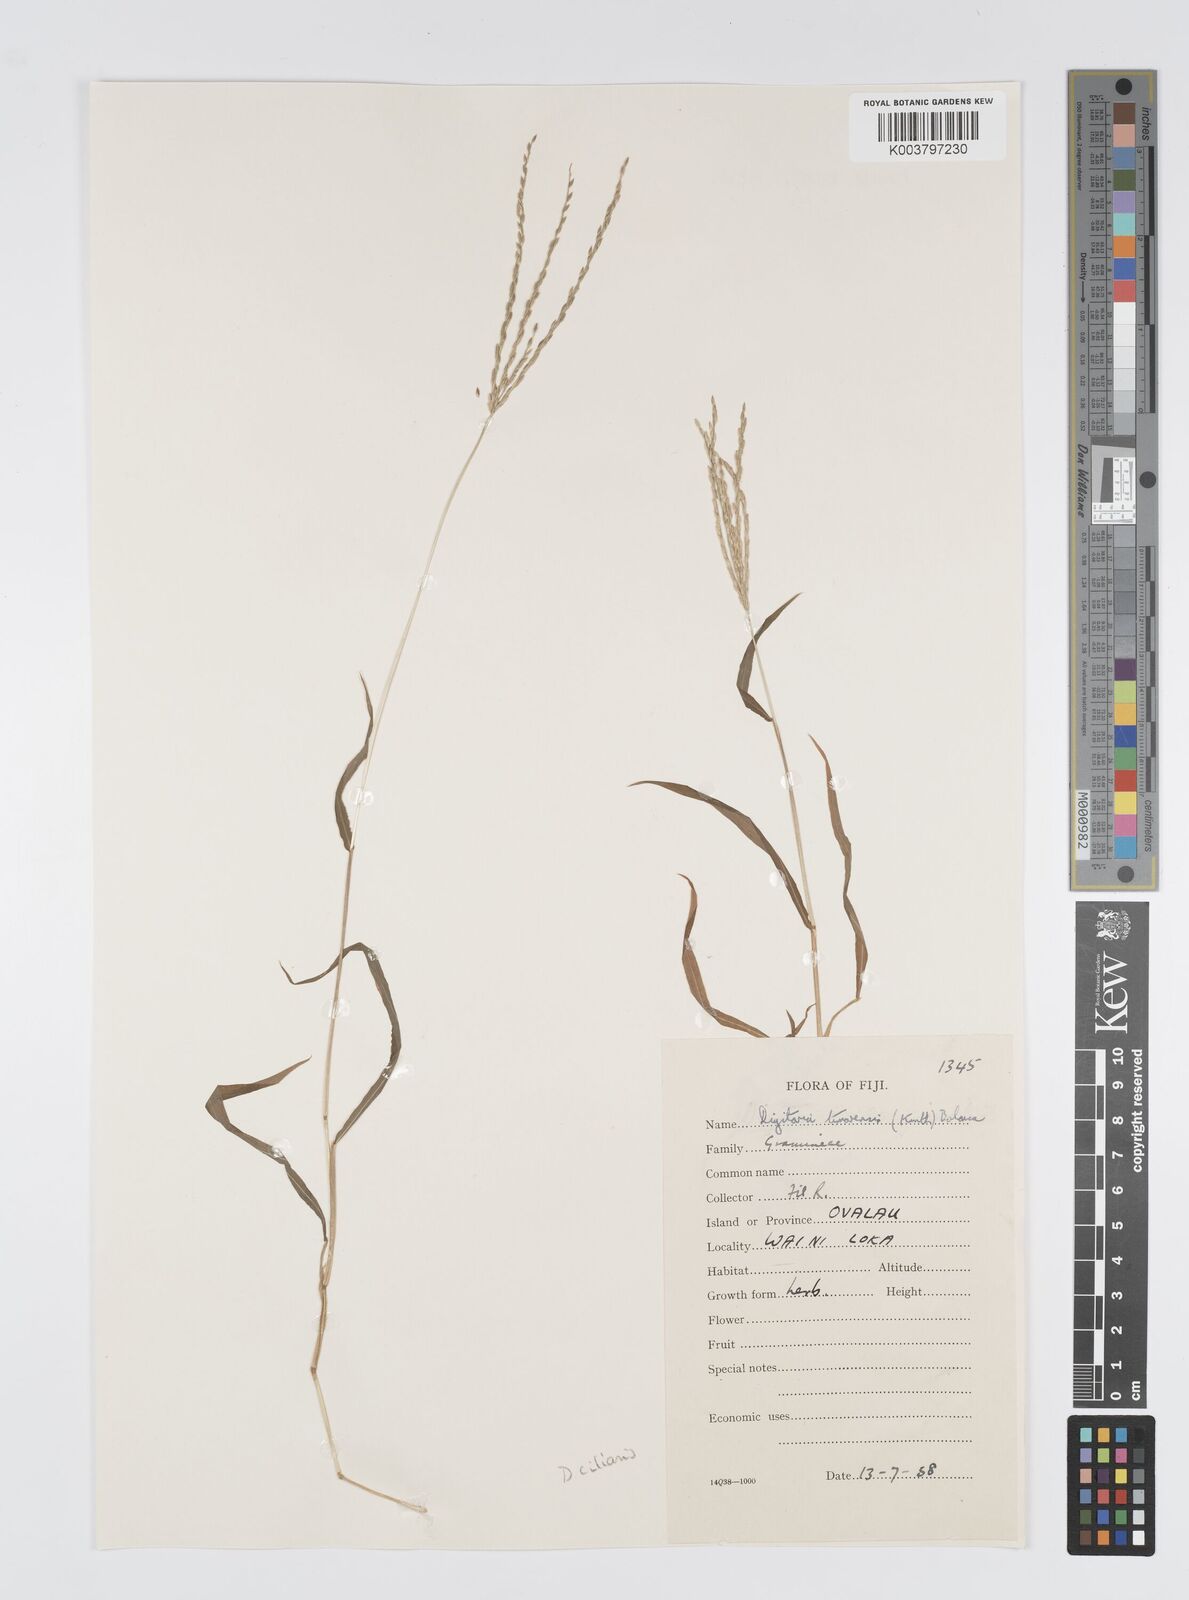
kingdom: Plantae
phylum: Tracheophyta
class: Liliopsida
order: Poales
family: Poaceae
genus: Digitaria
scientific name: Digitaria ciliaris
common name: Tropical finger-grass
